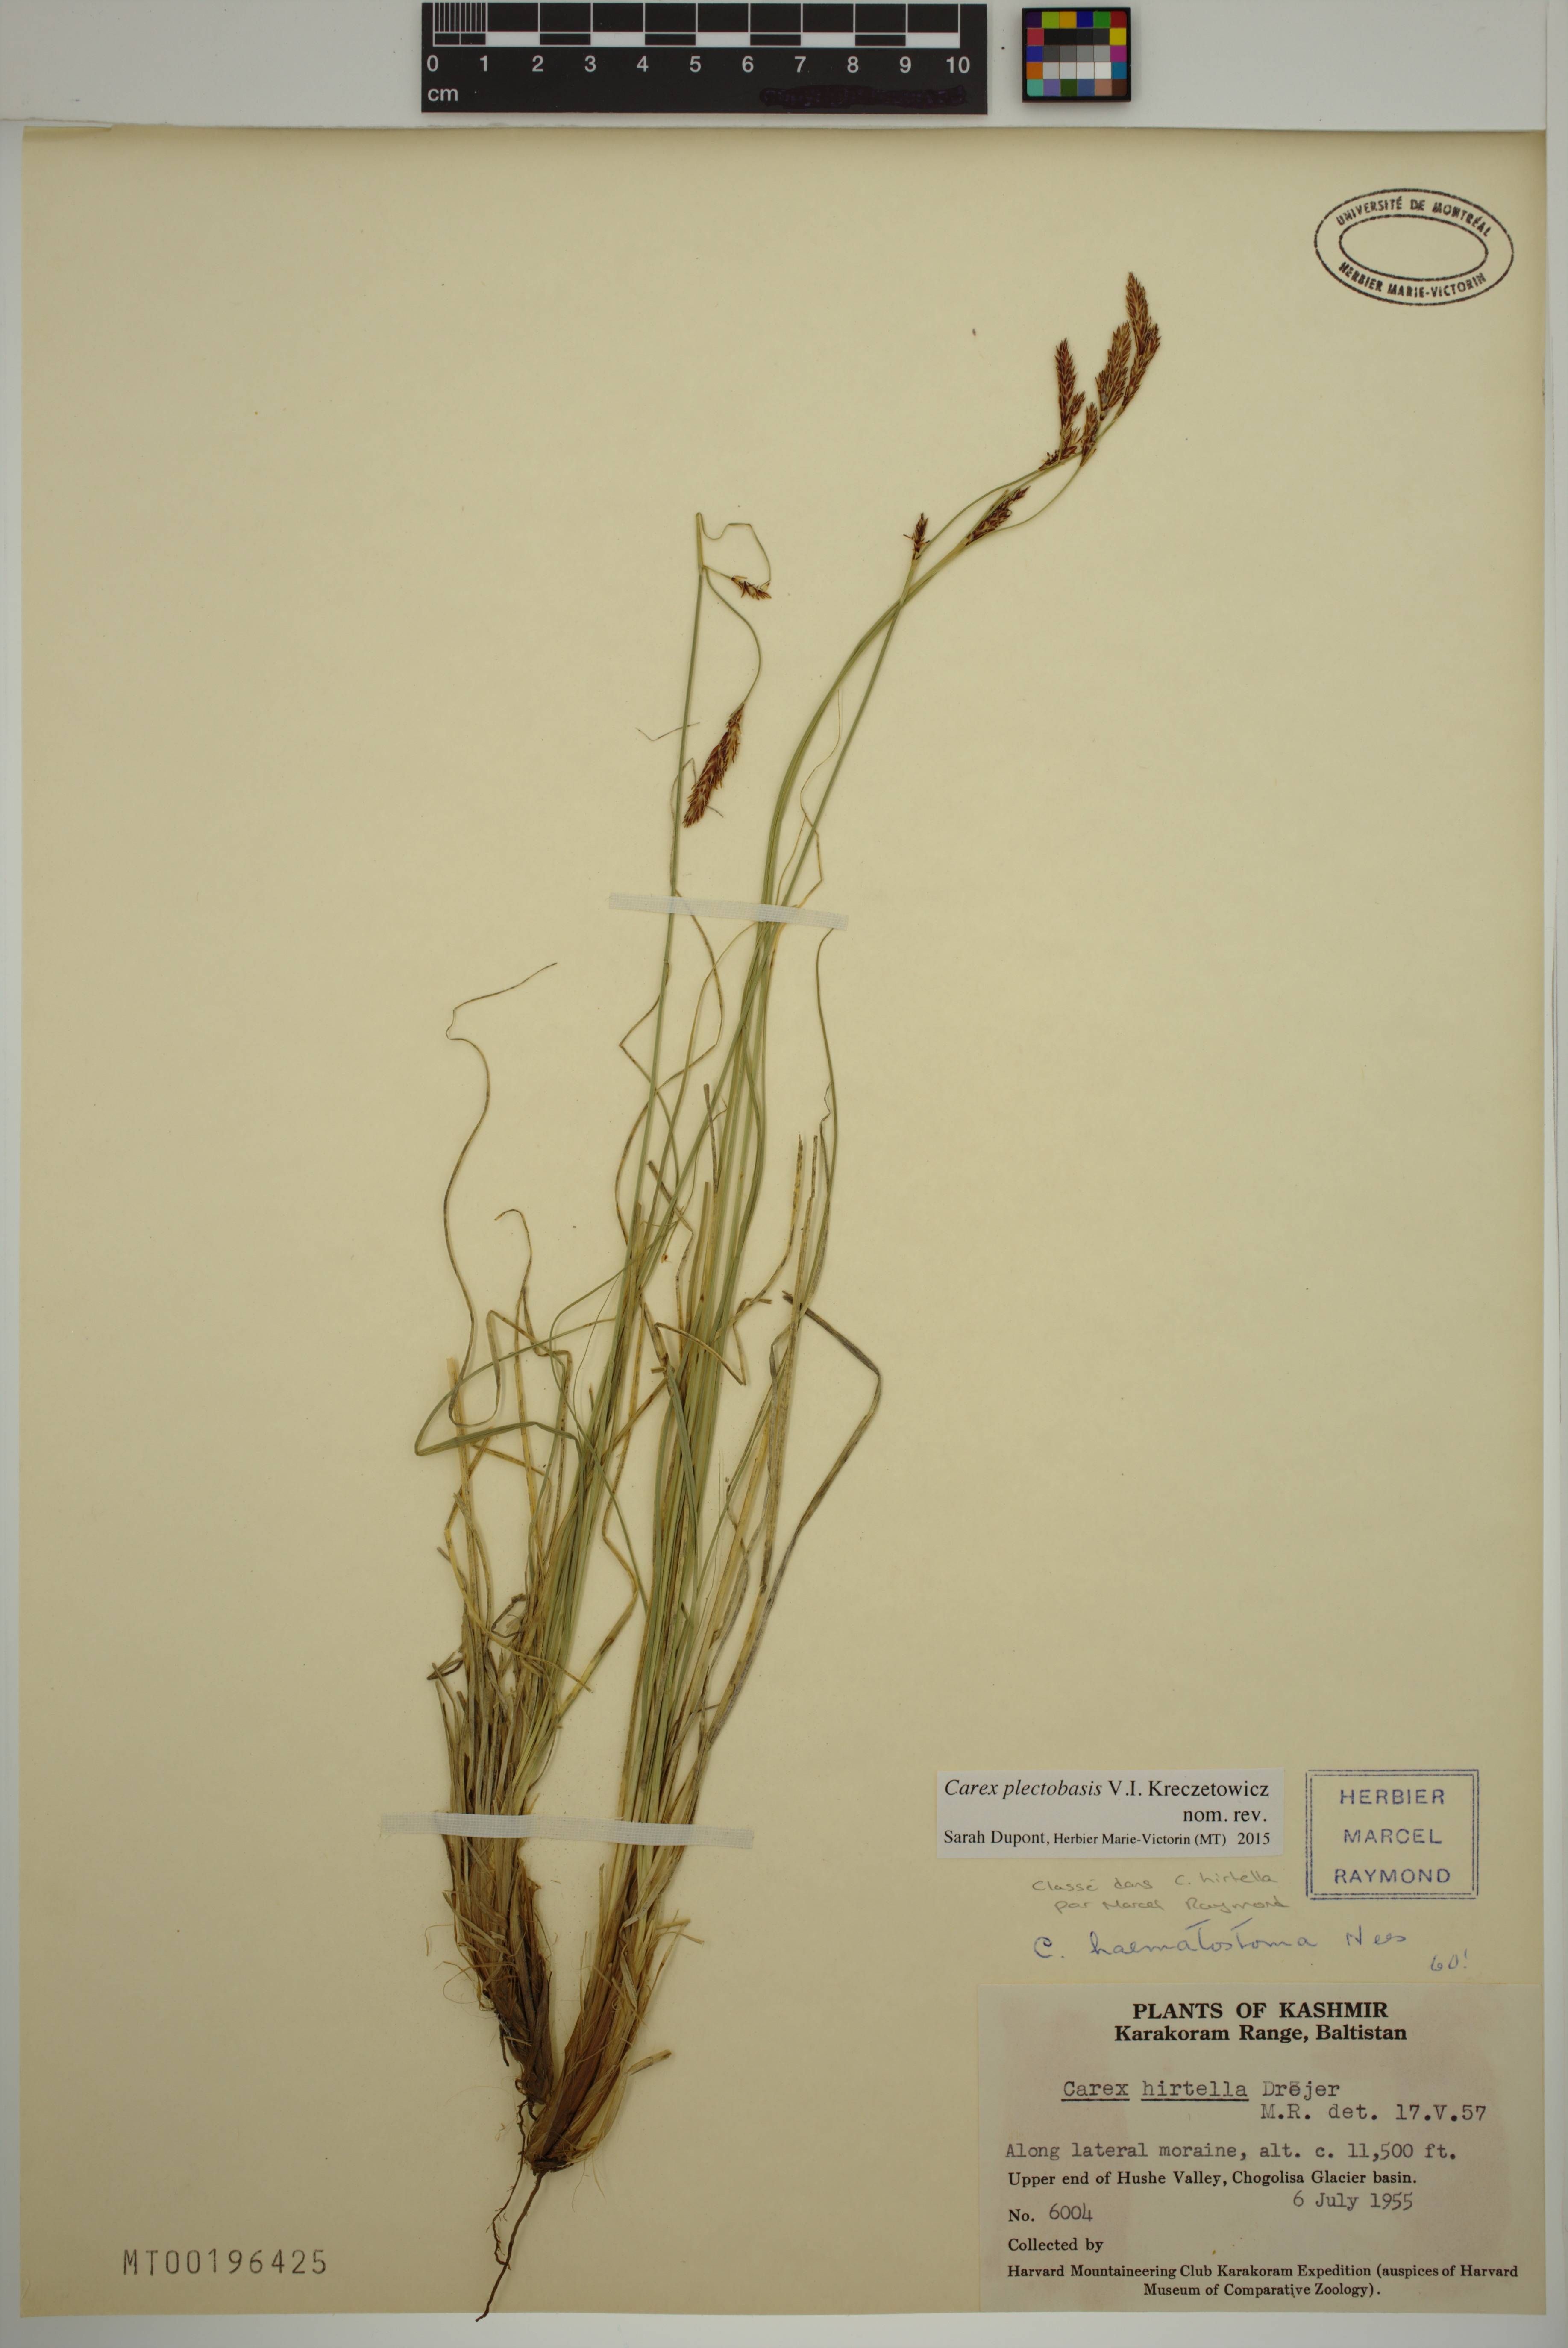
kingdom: Plantae
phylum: Tracheophyta
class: Liliopsida
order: Poales
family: Cyperaceae
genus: Carex
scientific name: Carex plectobasis
